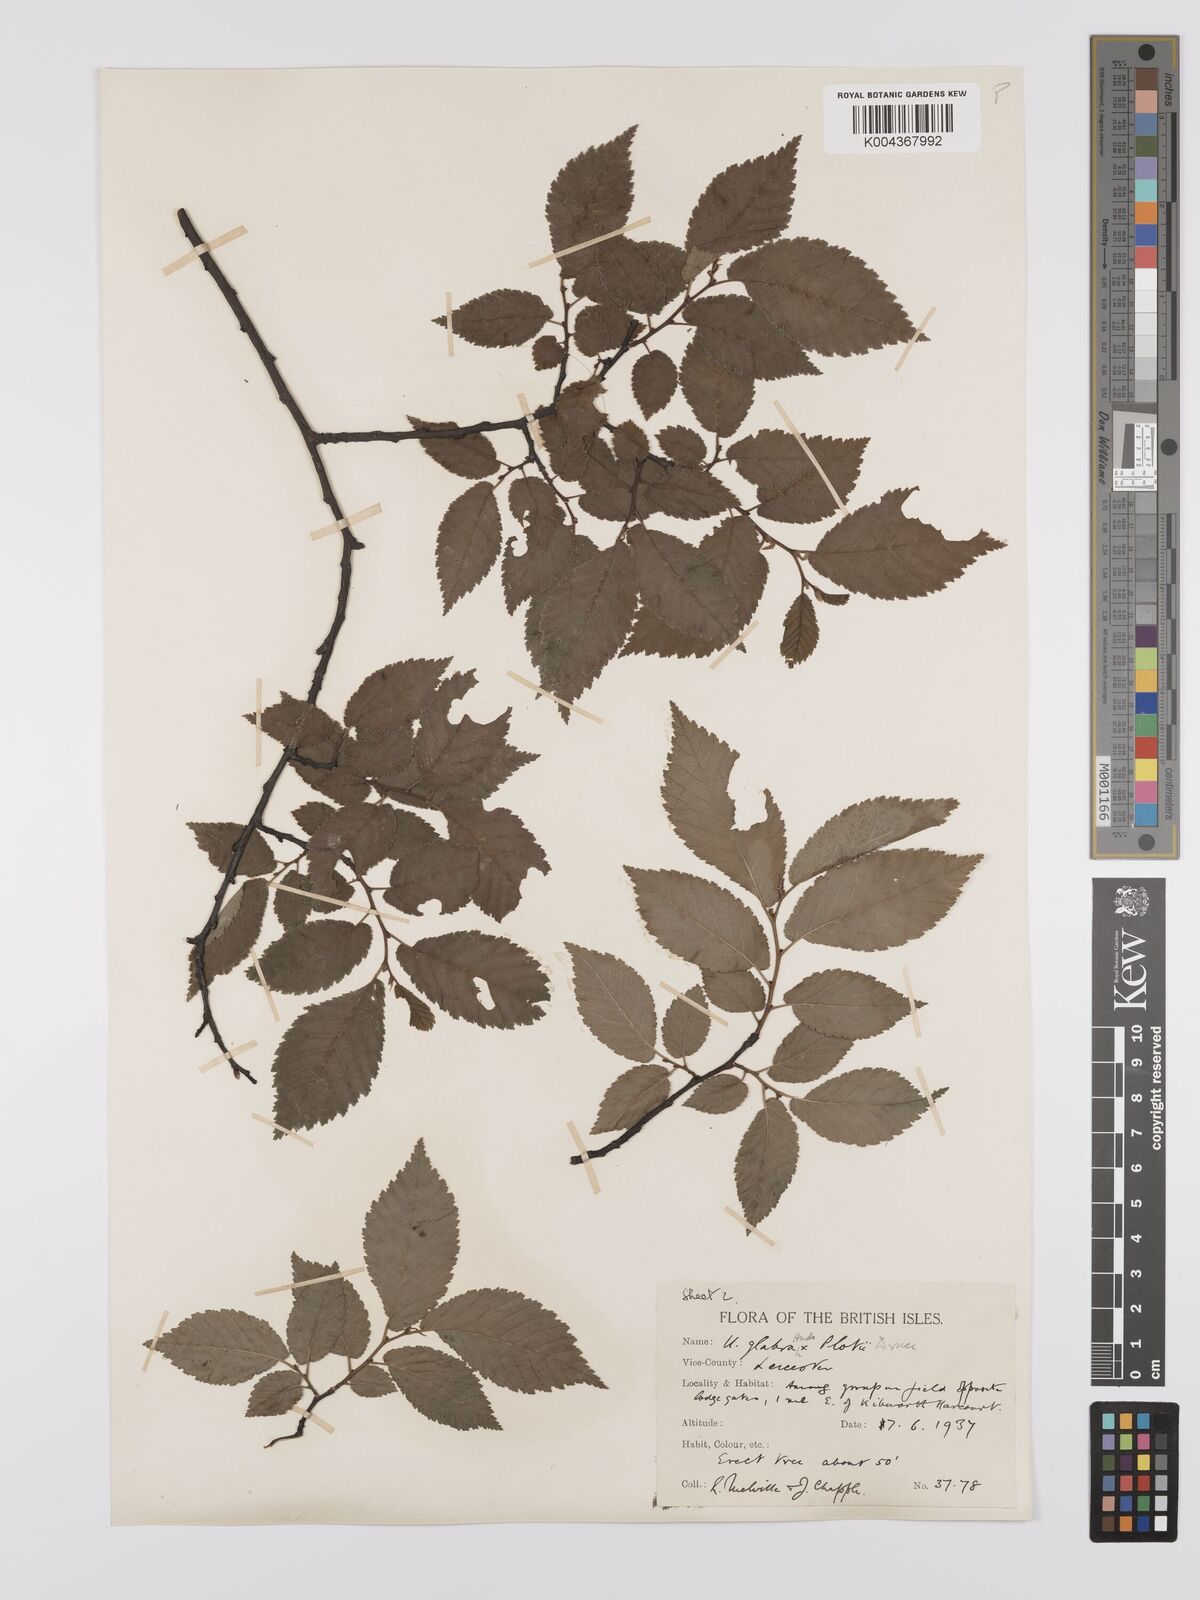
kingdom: Plantae
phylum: Tracheophyta
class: Magnoliopsida
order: Rosales
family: Ulmaceae
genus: Ulmus
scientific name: Ulmus
